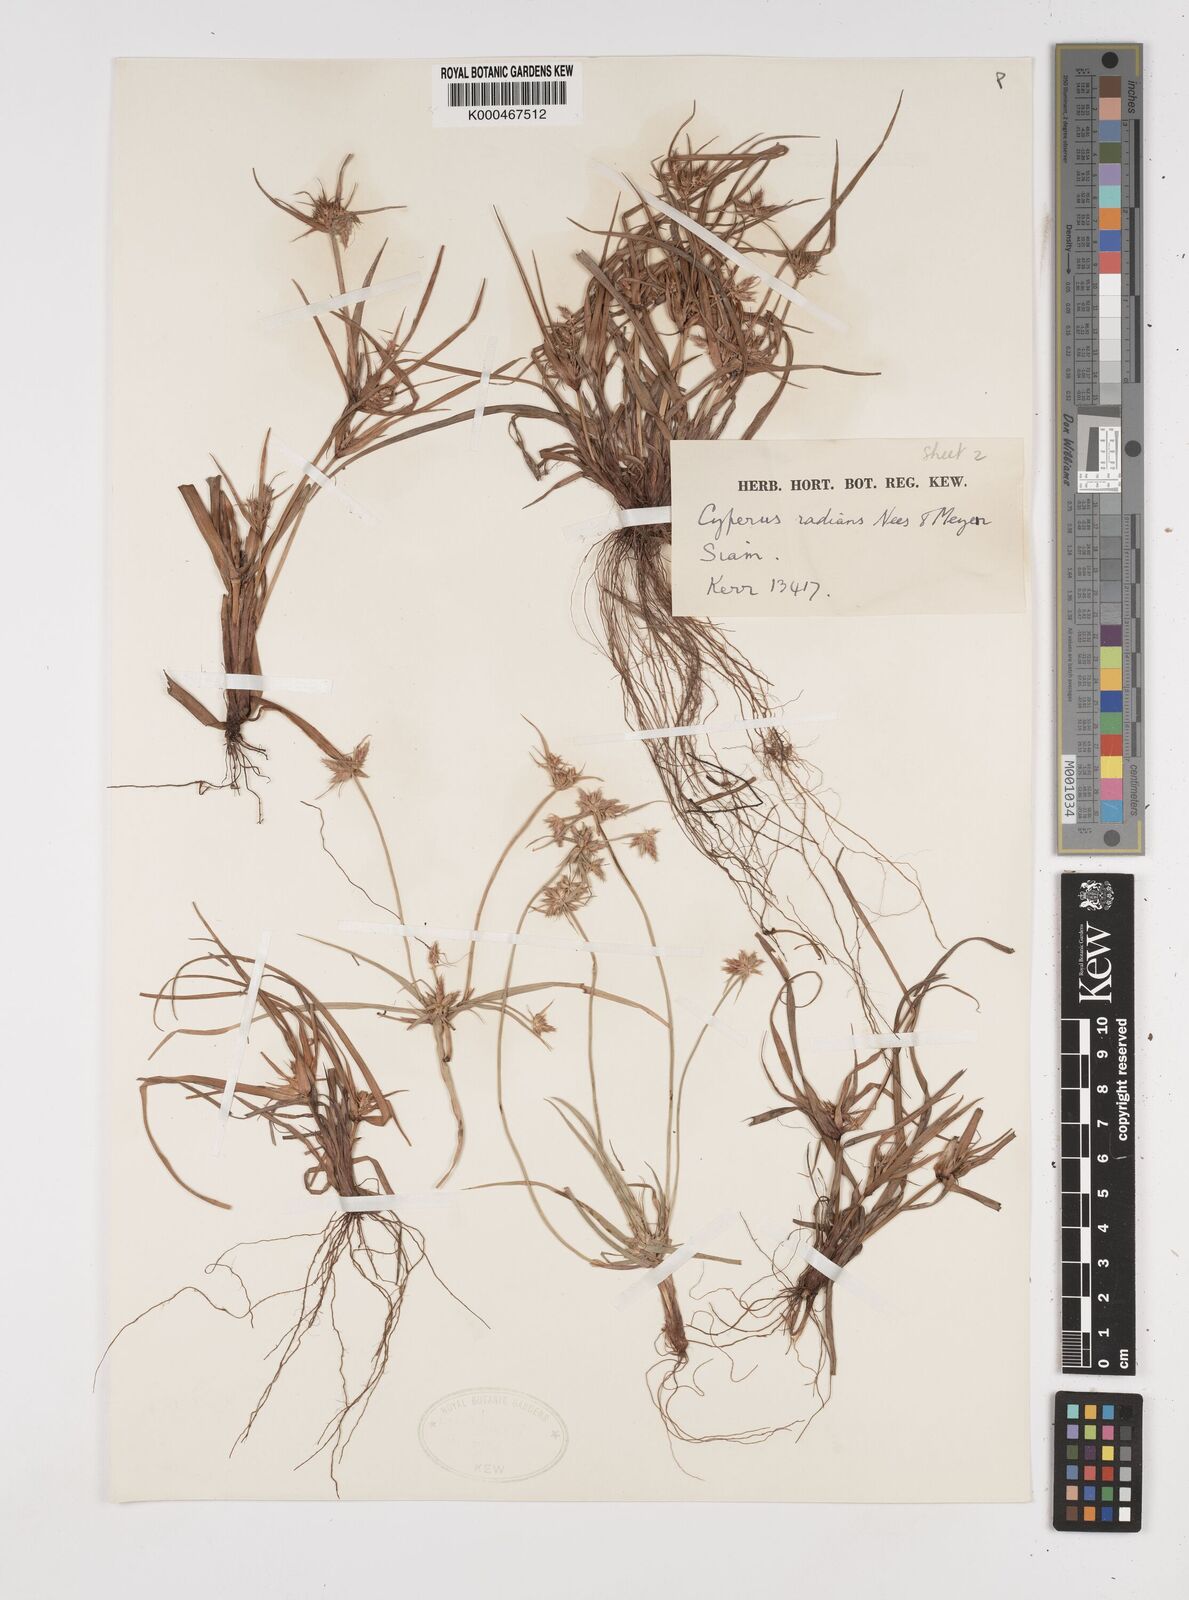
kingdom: Plantae
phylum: Tracheophyta
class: Liliopsida
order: Poales
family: Cyperaceae
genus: Cyperus
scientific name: Cyperus radians
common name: Short-stem cyperus
